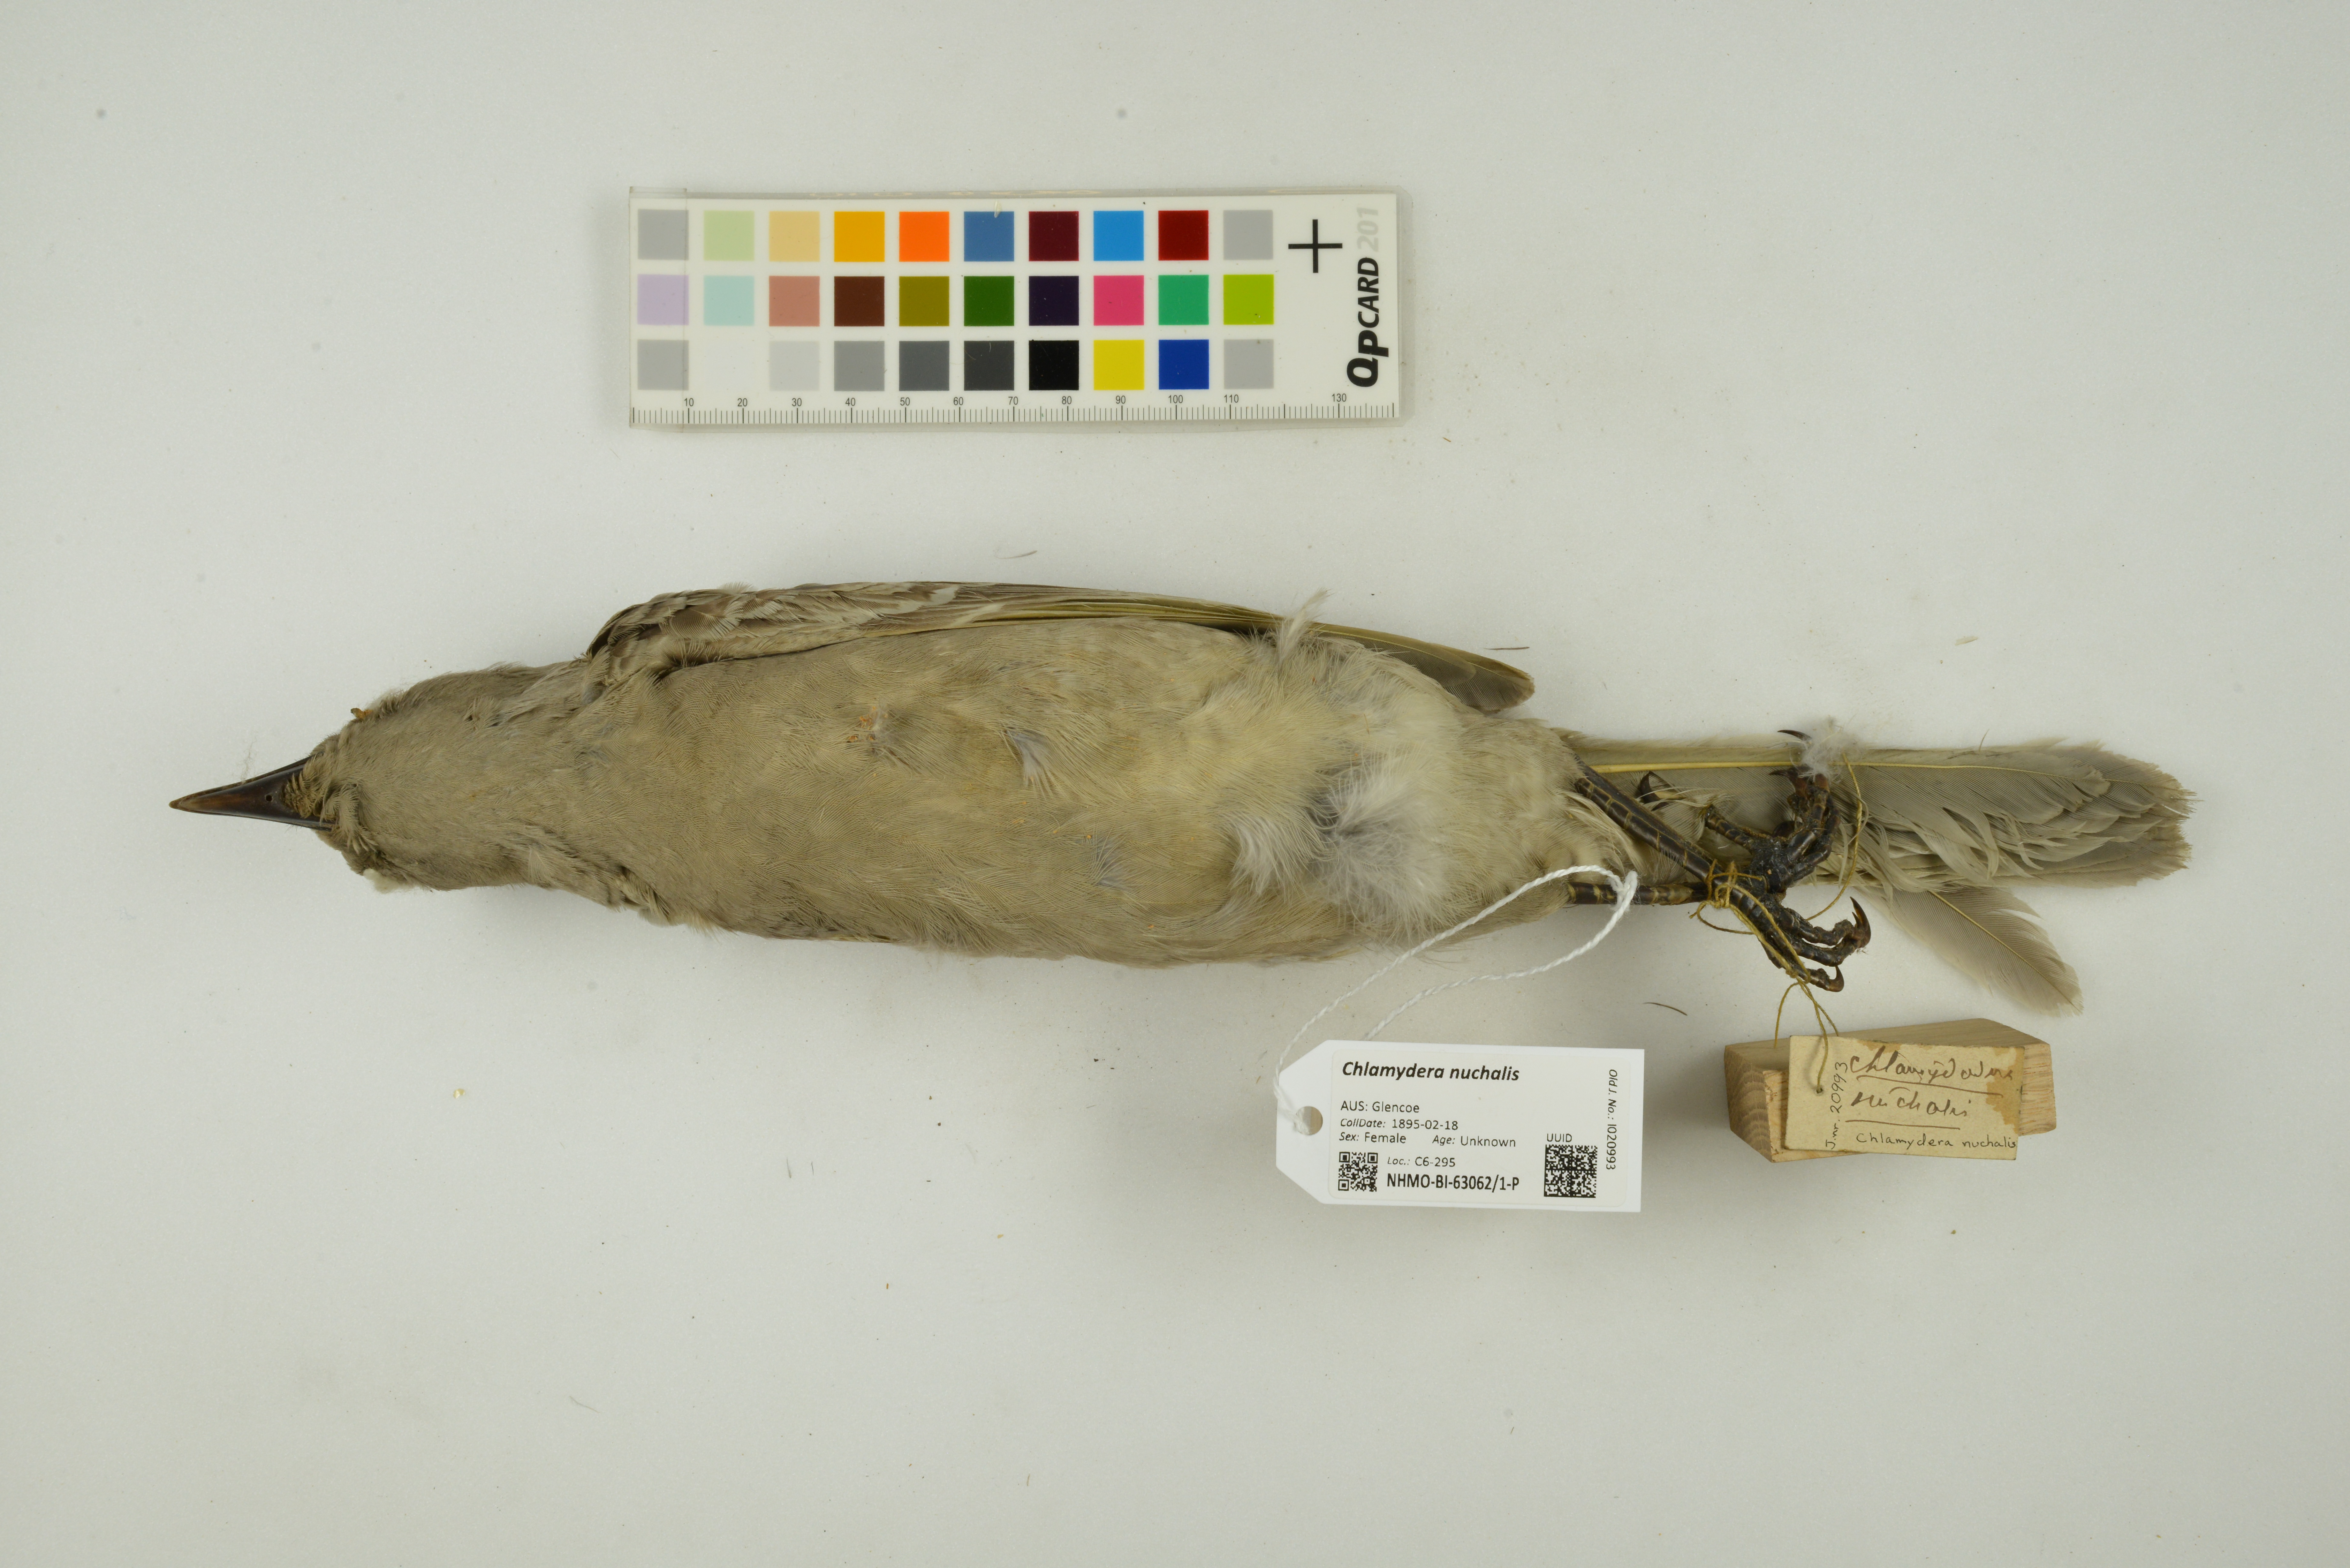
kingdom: Animalia
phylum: Chordata
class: Aves
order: Passeriformes
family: Ptilonorhynchidae
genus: Chlamydera
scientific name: Chlamydera nuchalis
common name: Great bowerbird
